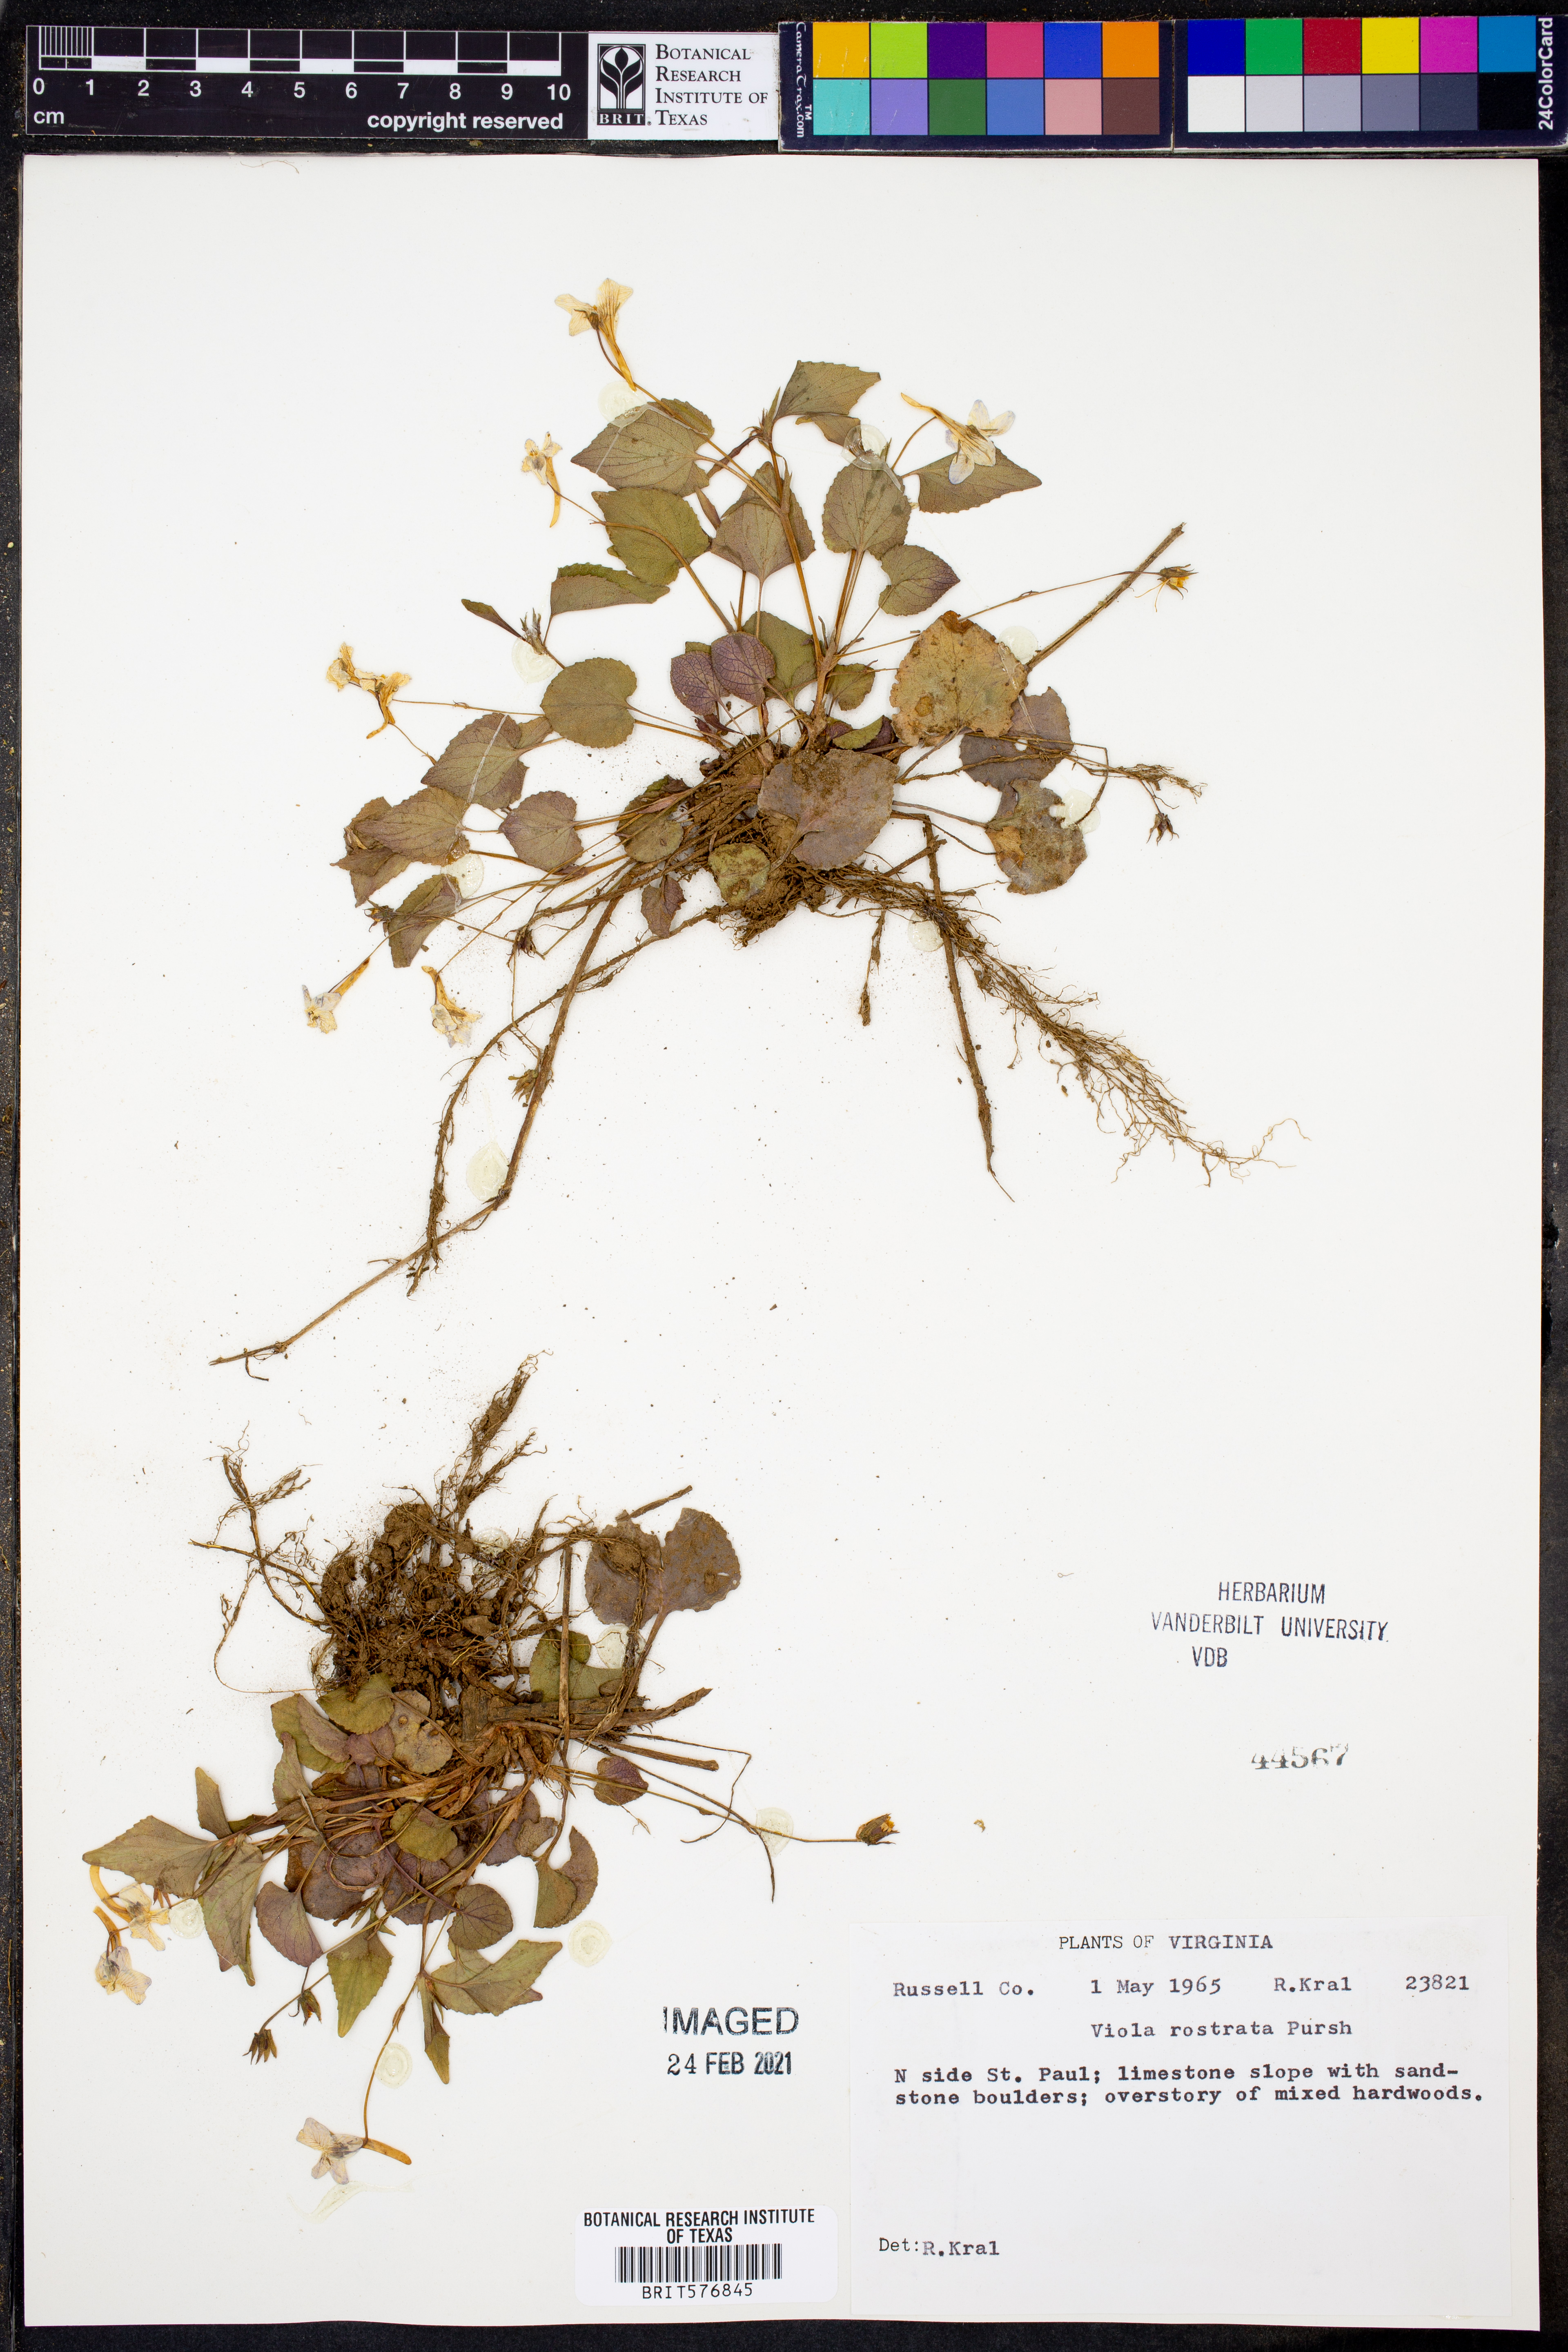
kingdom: Plantae
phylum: Tracheophyta
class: Magnoliopsida
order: Malpighiales
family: Violaceae
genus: Viola
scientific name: Viola rostrata
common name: Long-spur violet
